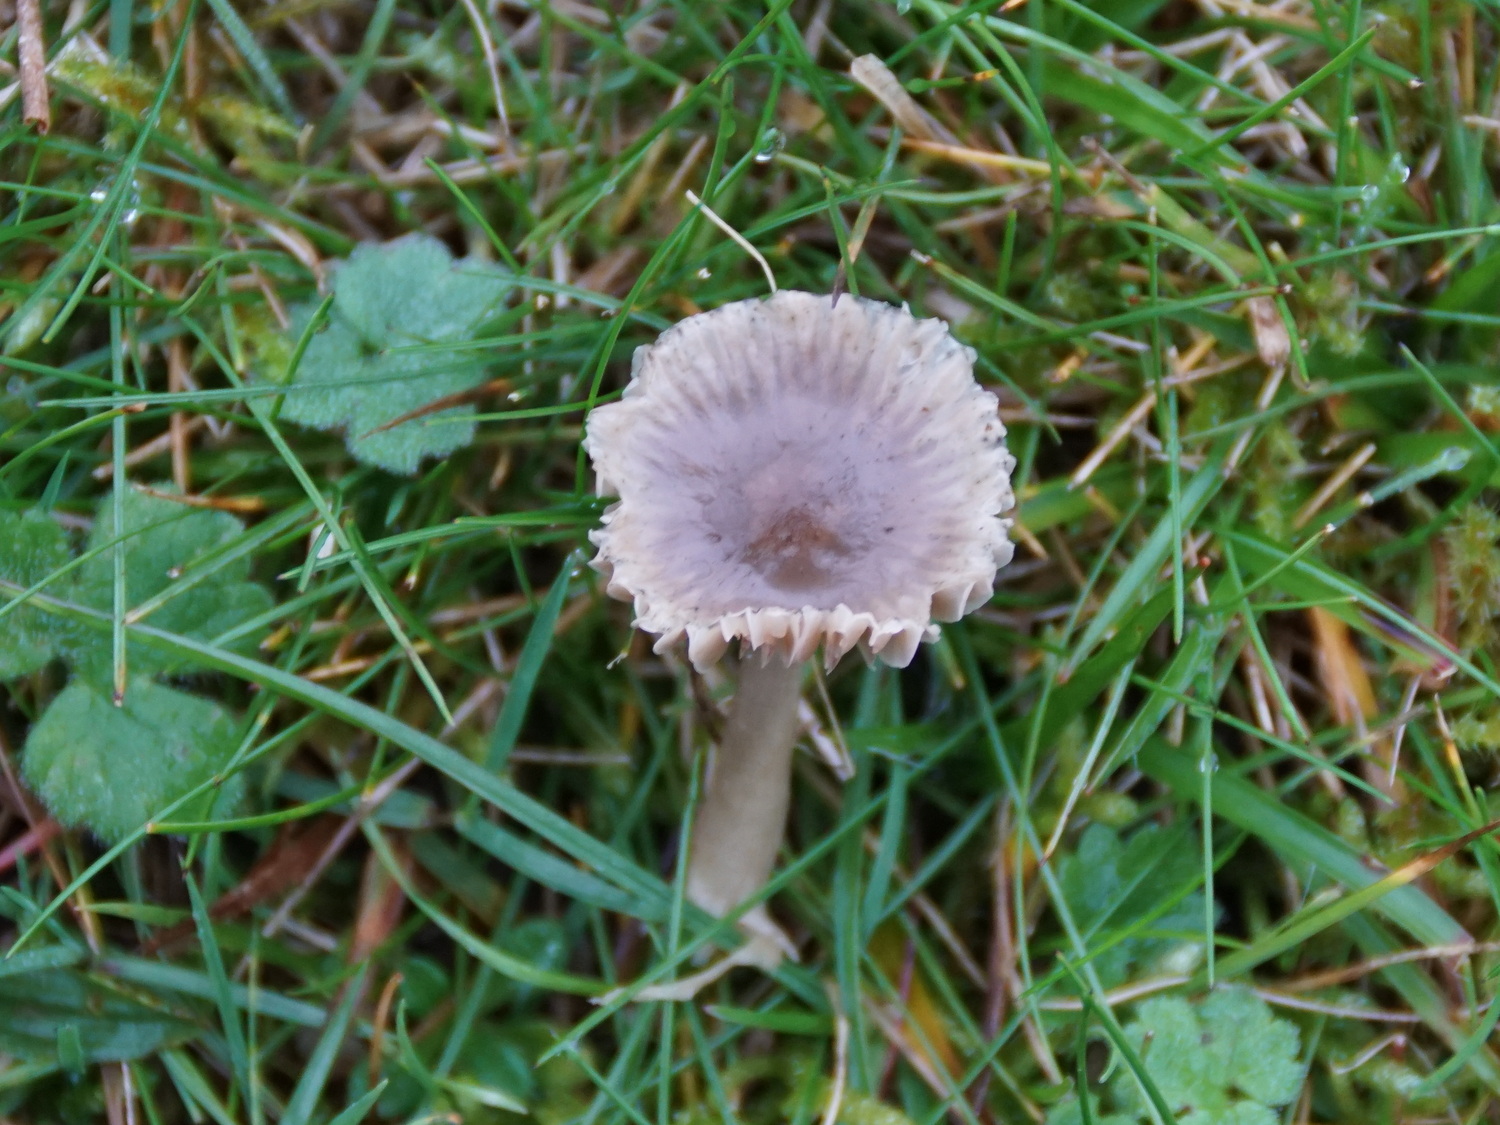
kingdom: Fungi
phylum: Basidiomycota
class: Agaricomycetes
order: Agaricales
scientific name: Agaricales
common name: champignonordenen
